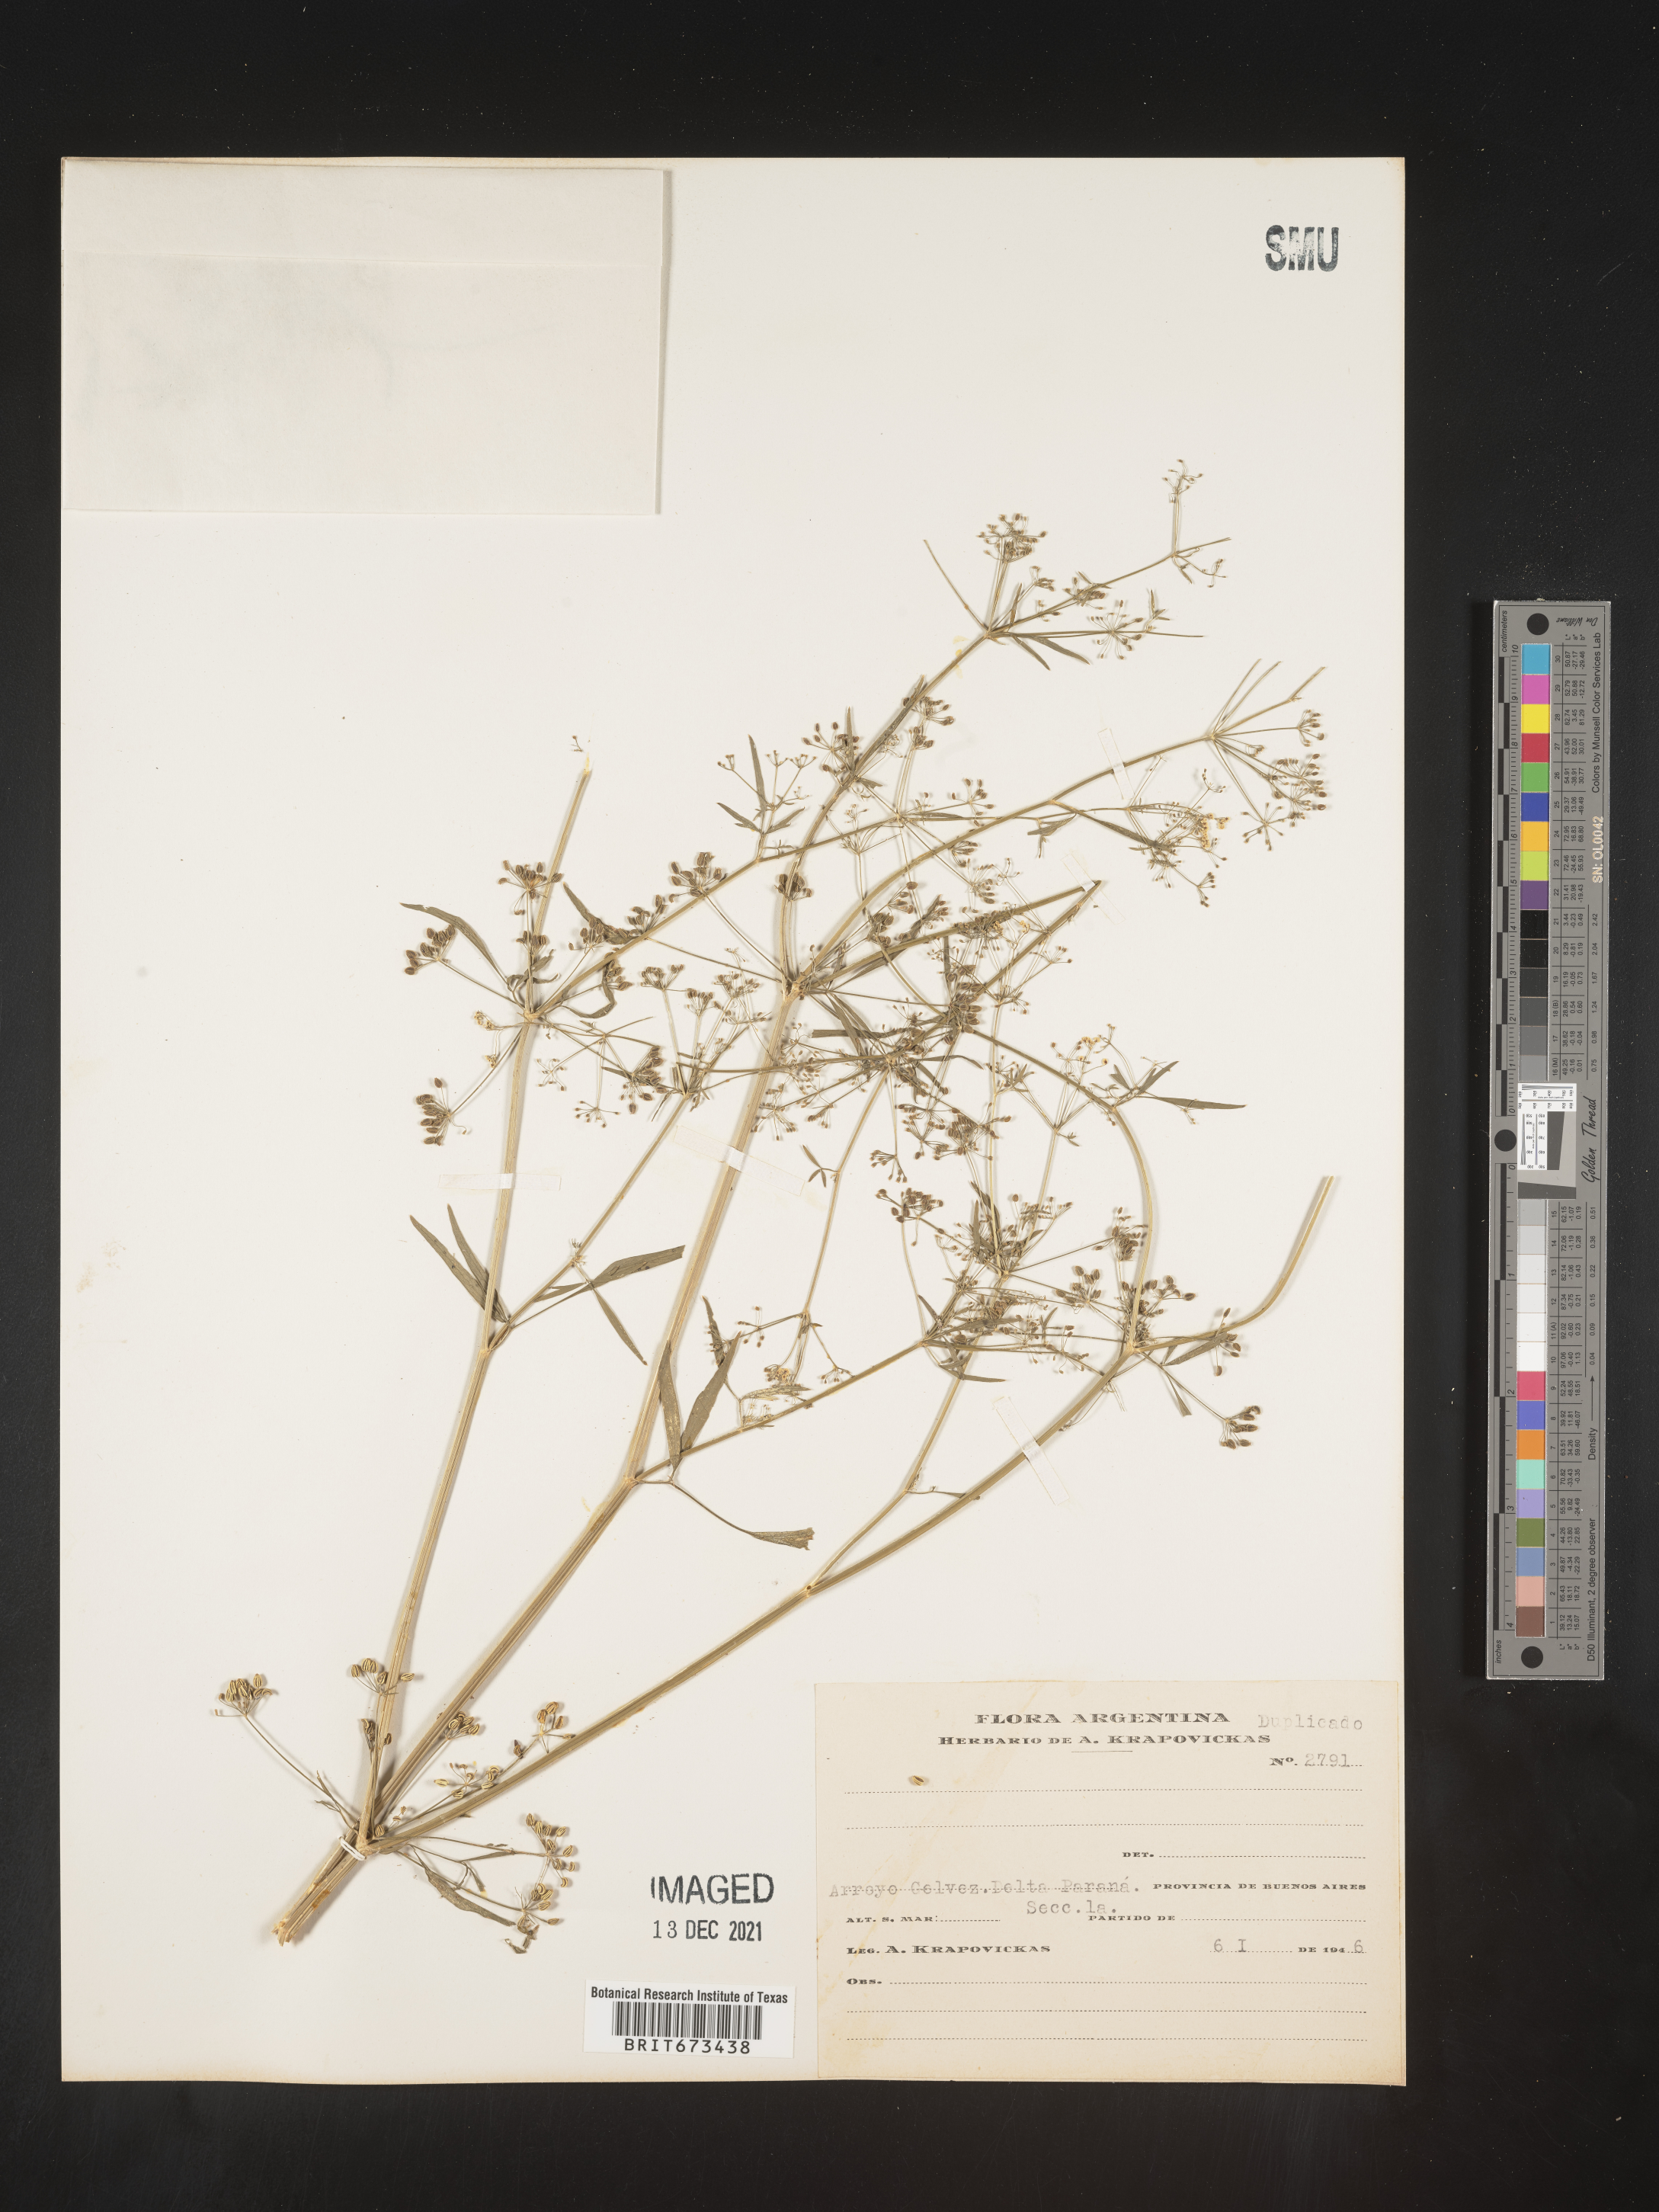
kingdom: Plantae
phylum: Tracheophyta
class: Magnoliopsida
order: Apiales
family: Apiaceae
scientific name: Apiaceae
